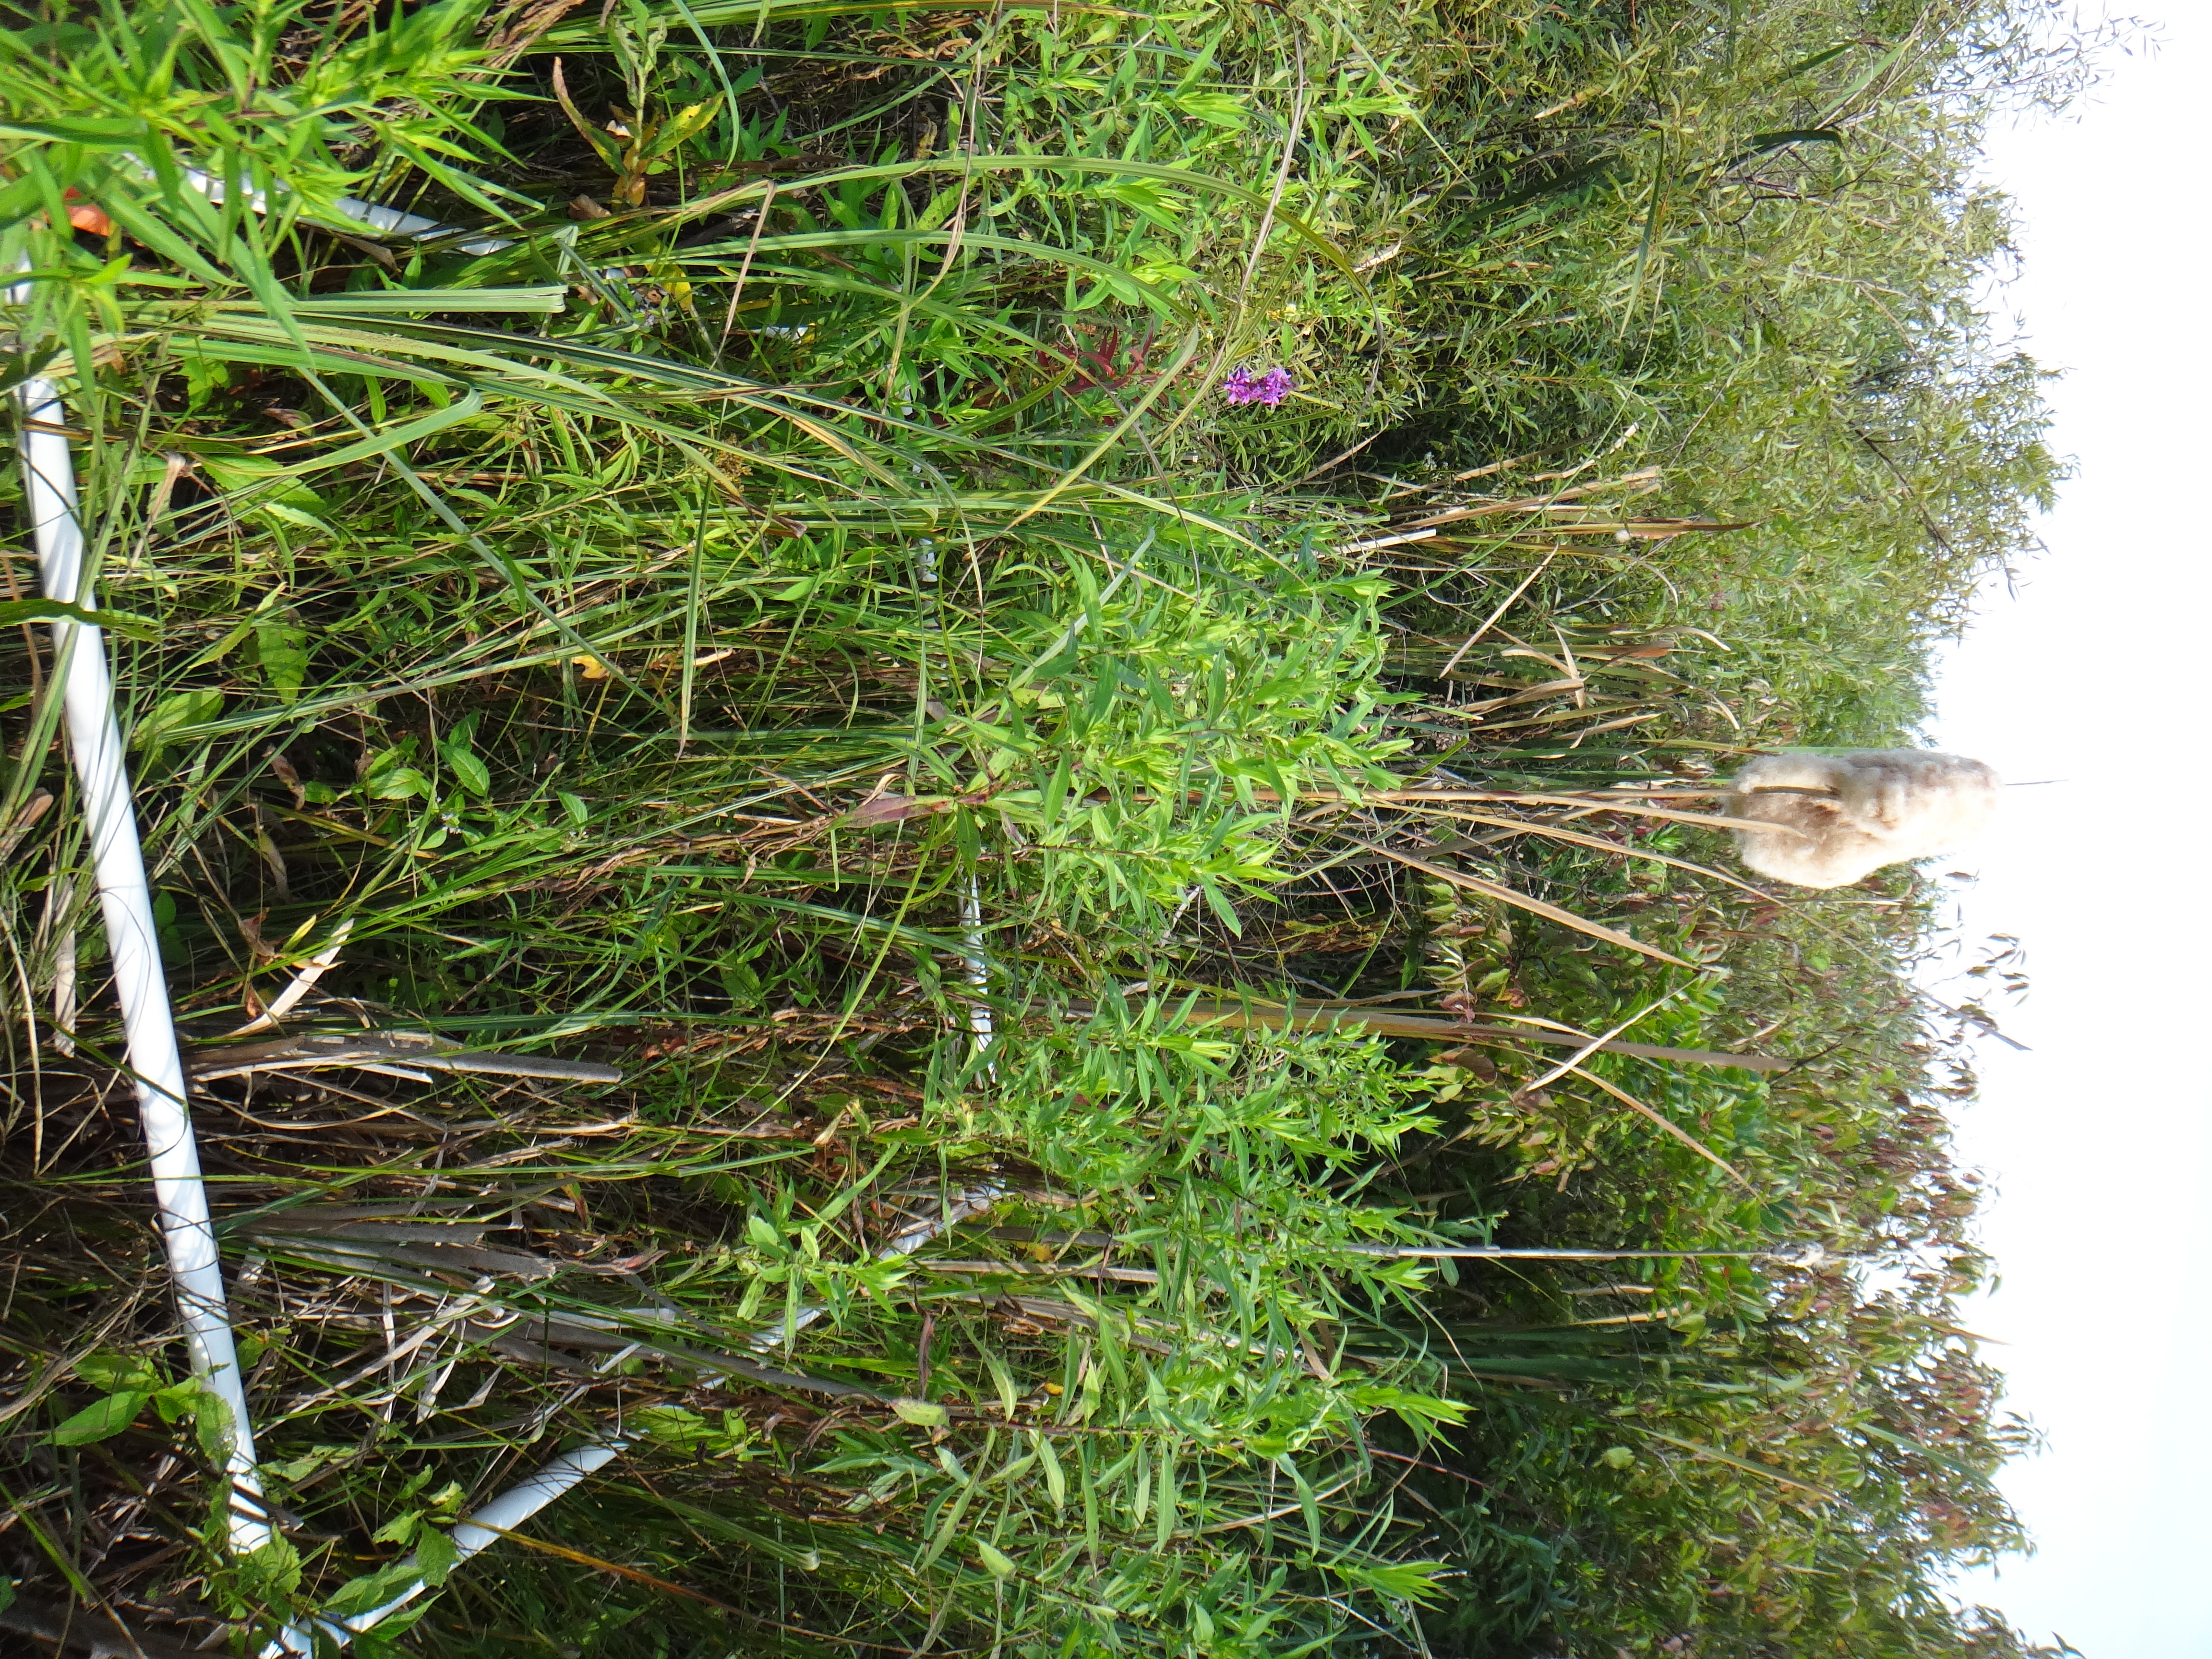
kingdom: Plantae
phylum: Tracheophyta
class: Liliopsida
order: Poales
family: Cyperaceae
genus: Carex
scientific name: Carex lacustris
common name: Common lake sedge
